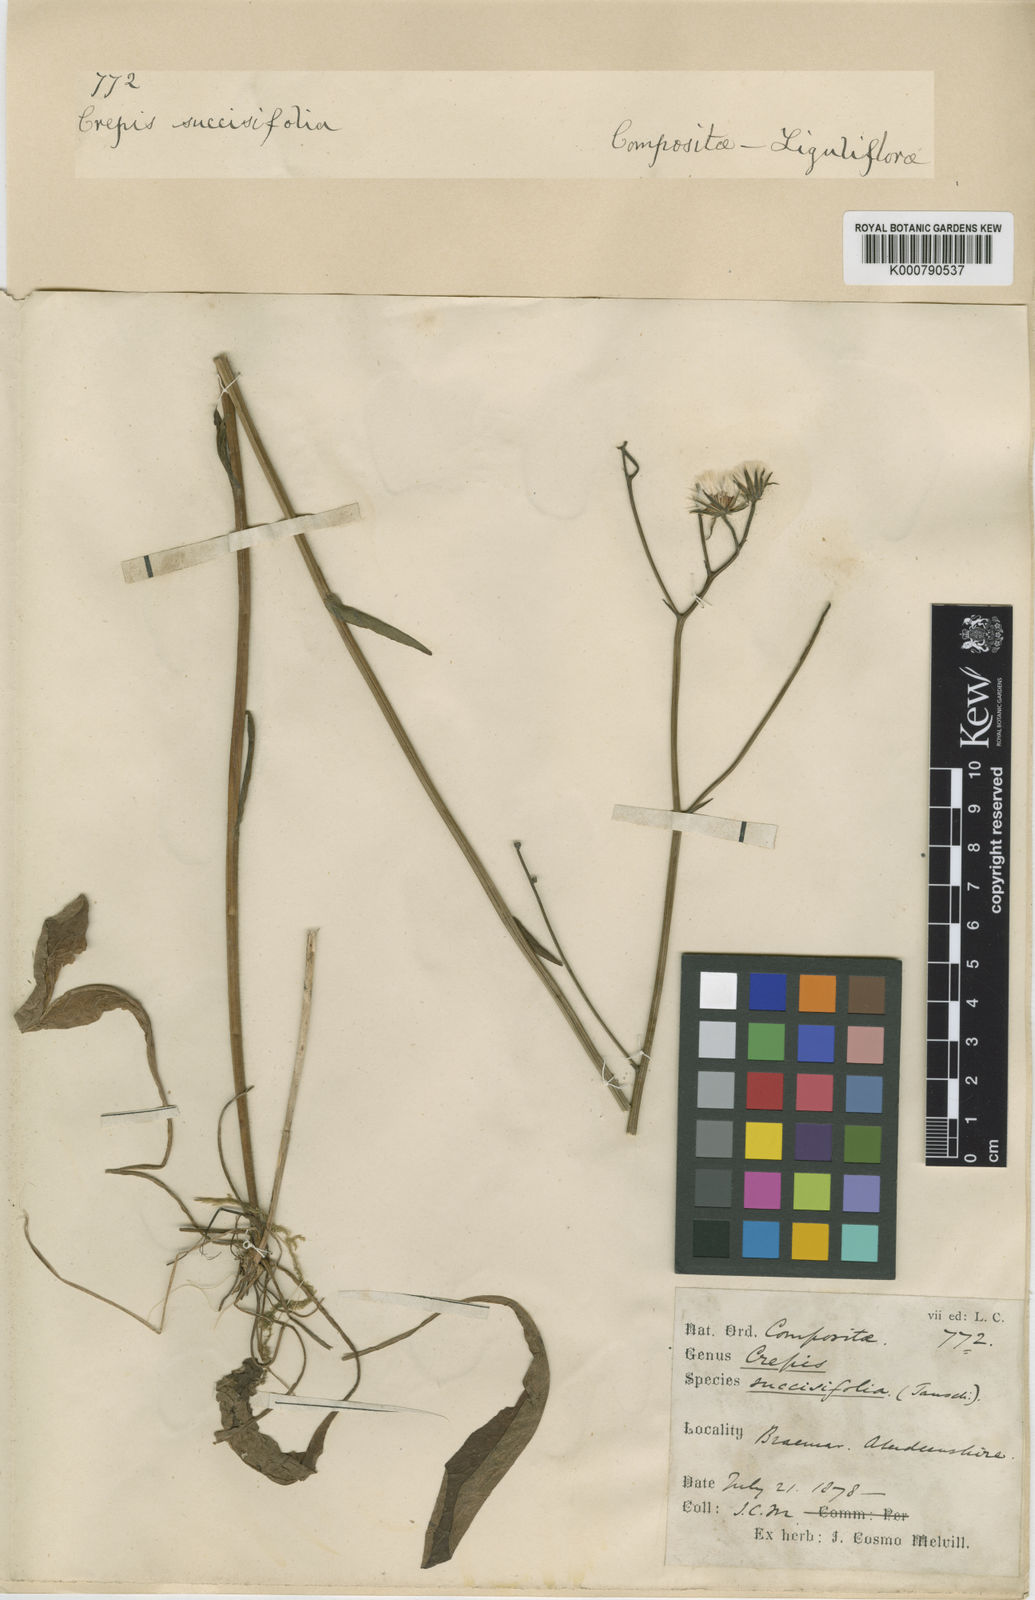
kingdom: Plantae
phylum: Tracheophyta
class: Magnoliopsida
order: Asterales
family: Asteraceae
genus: Crepis
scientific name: Crepis mollis
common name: Northern hawk's-beard
